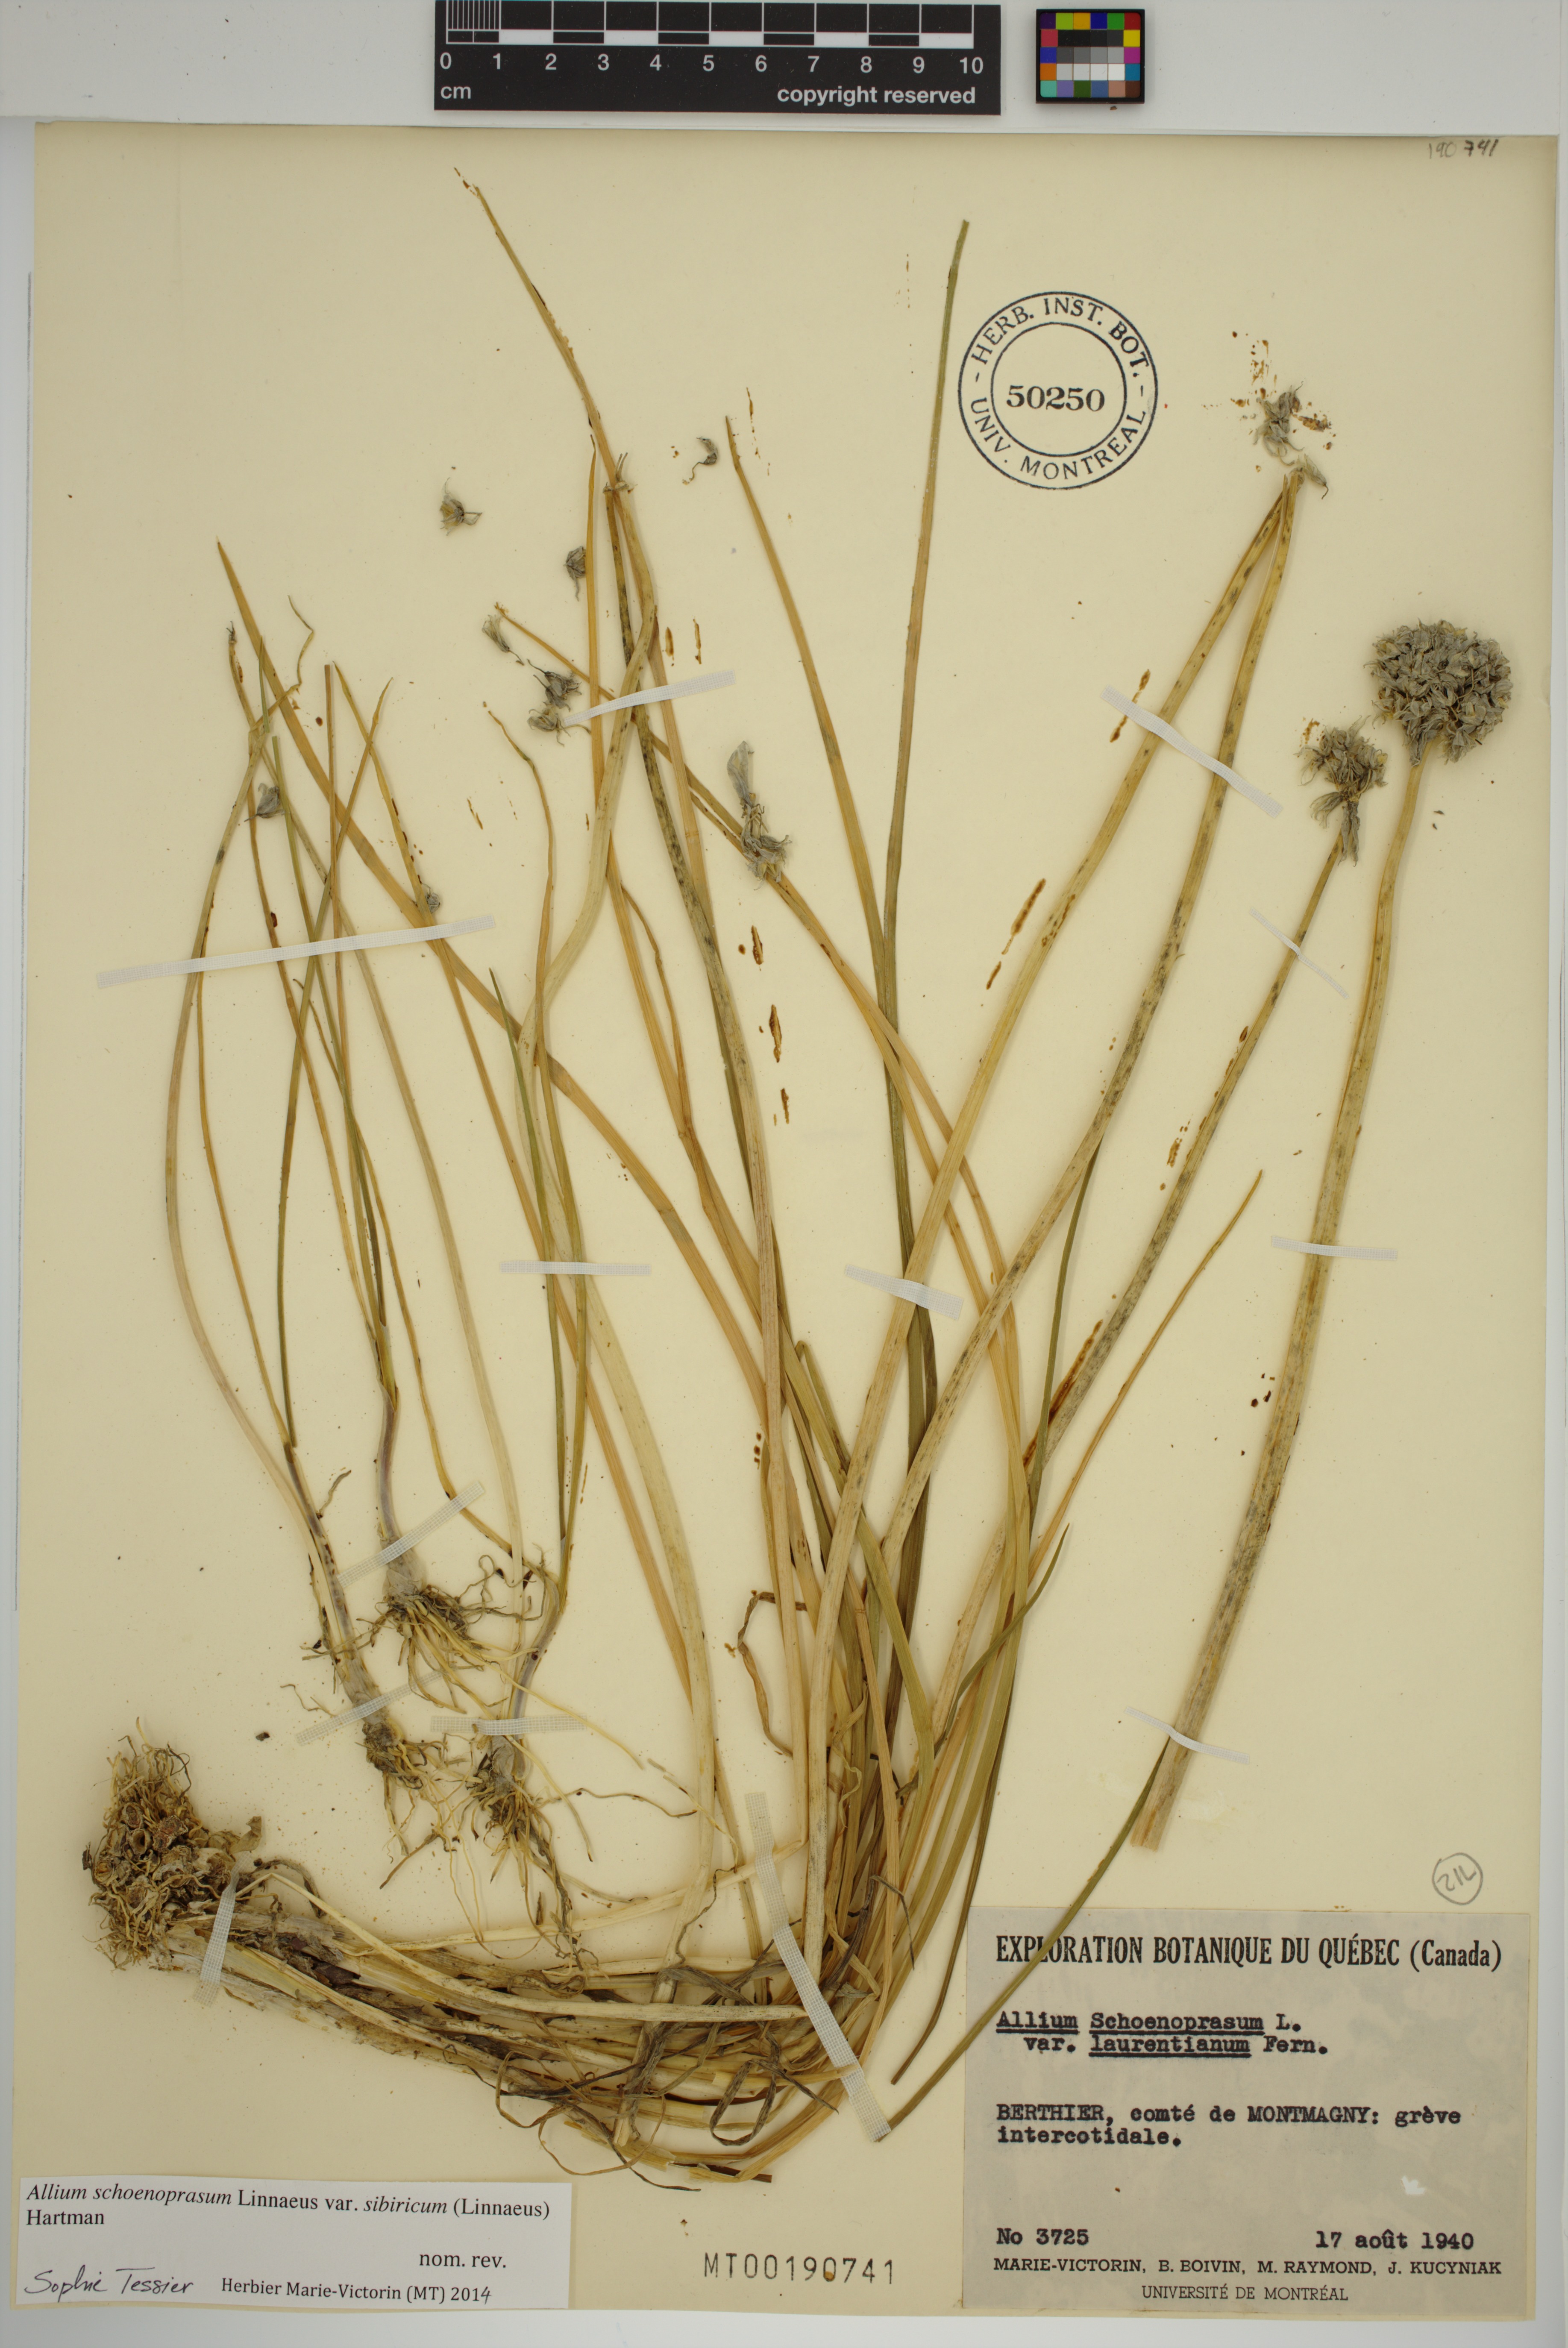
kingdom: Plantae
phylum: Tracheophyta
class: Liliopsida
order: Asparagales
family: Amaryllidaceae
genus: Allium
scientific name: Allium schoenoprasum
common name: Chives
